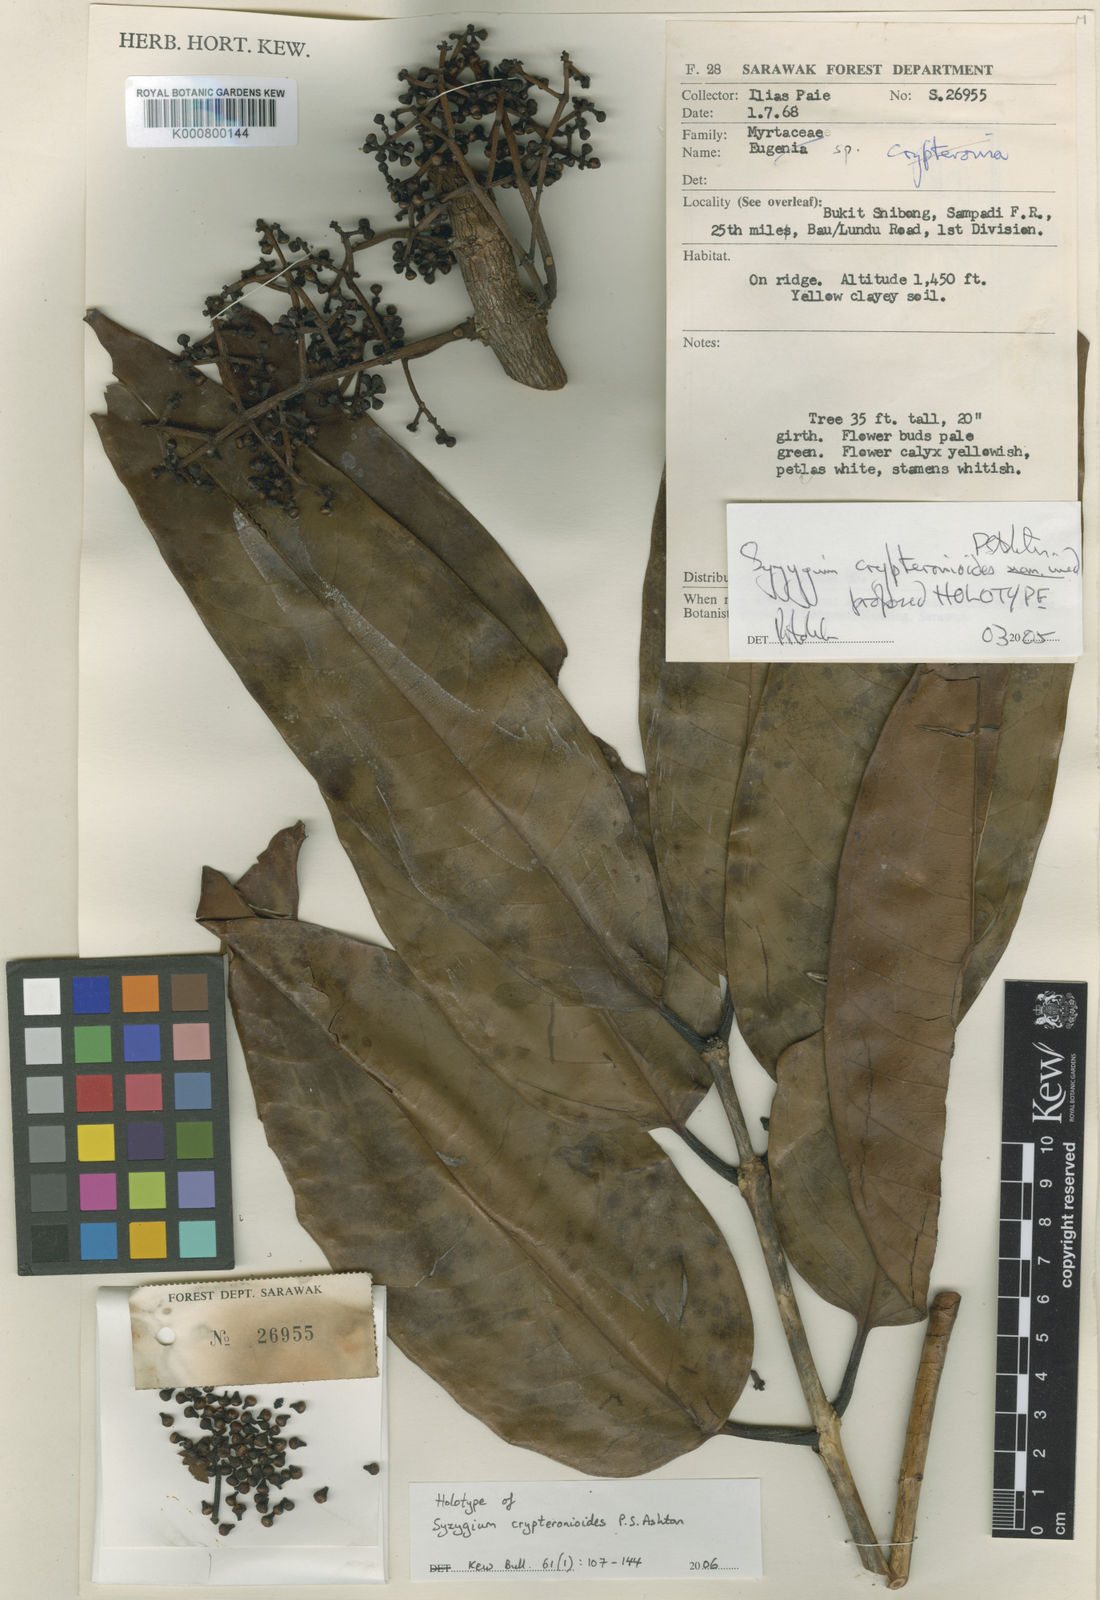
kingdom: Plantae
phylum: Tracheophyta
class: Magnoliopsida
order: Myrtales
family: Myrtaceae
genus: Syzygium
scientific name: Syzygium crypteronioides
